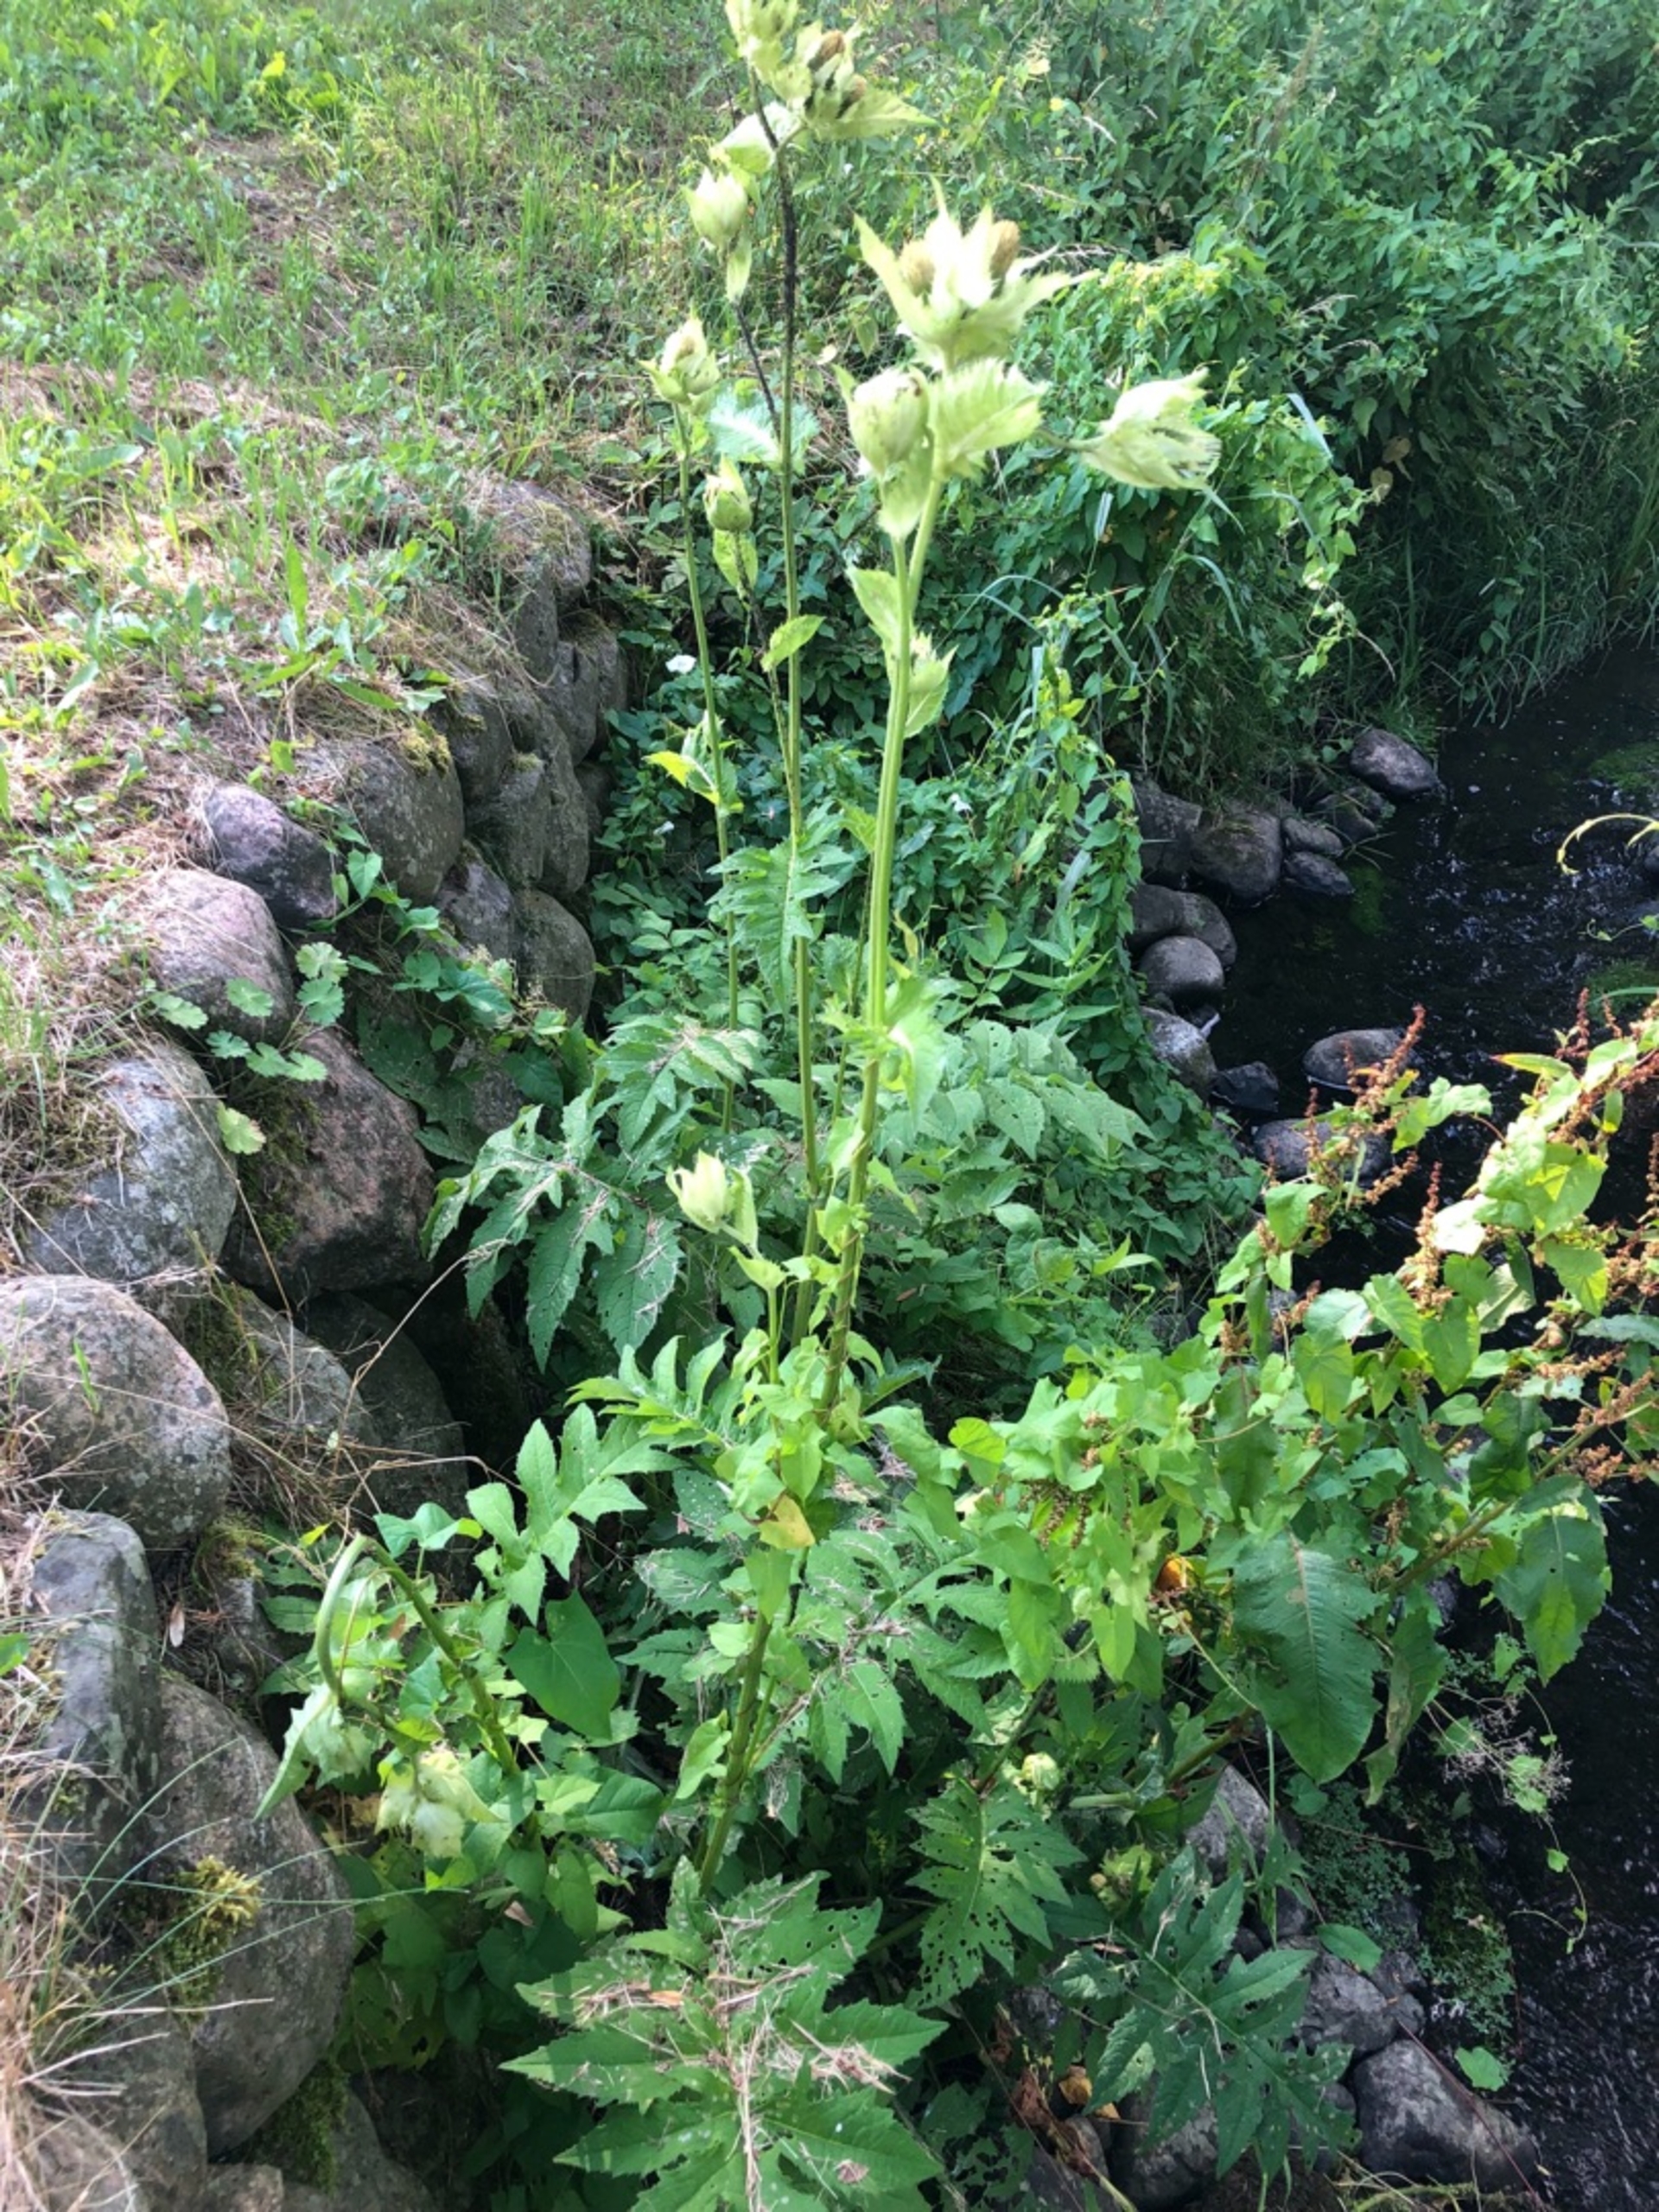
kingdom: Plantae
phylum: Tracheophyta
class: Magnoliopsida
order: Asterales
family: Asteraceae
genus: Cirsium
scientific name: Cirsium oleraceum
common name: Kål-tidsel
